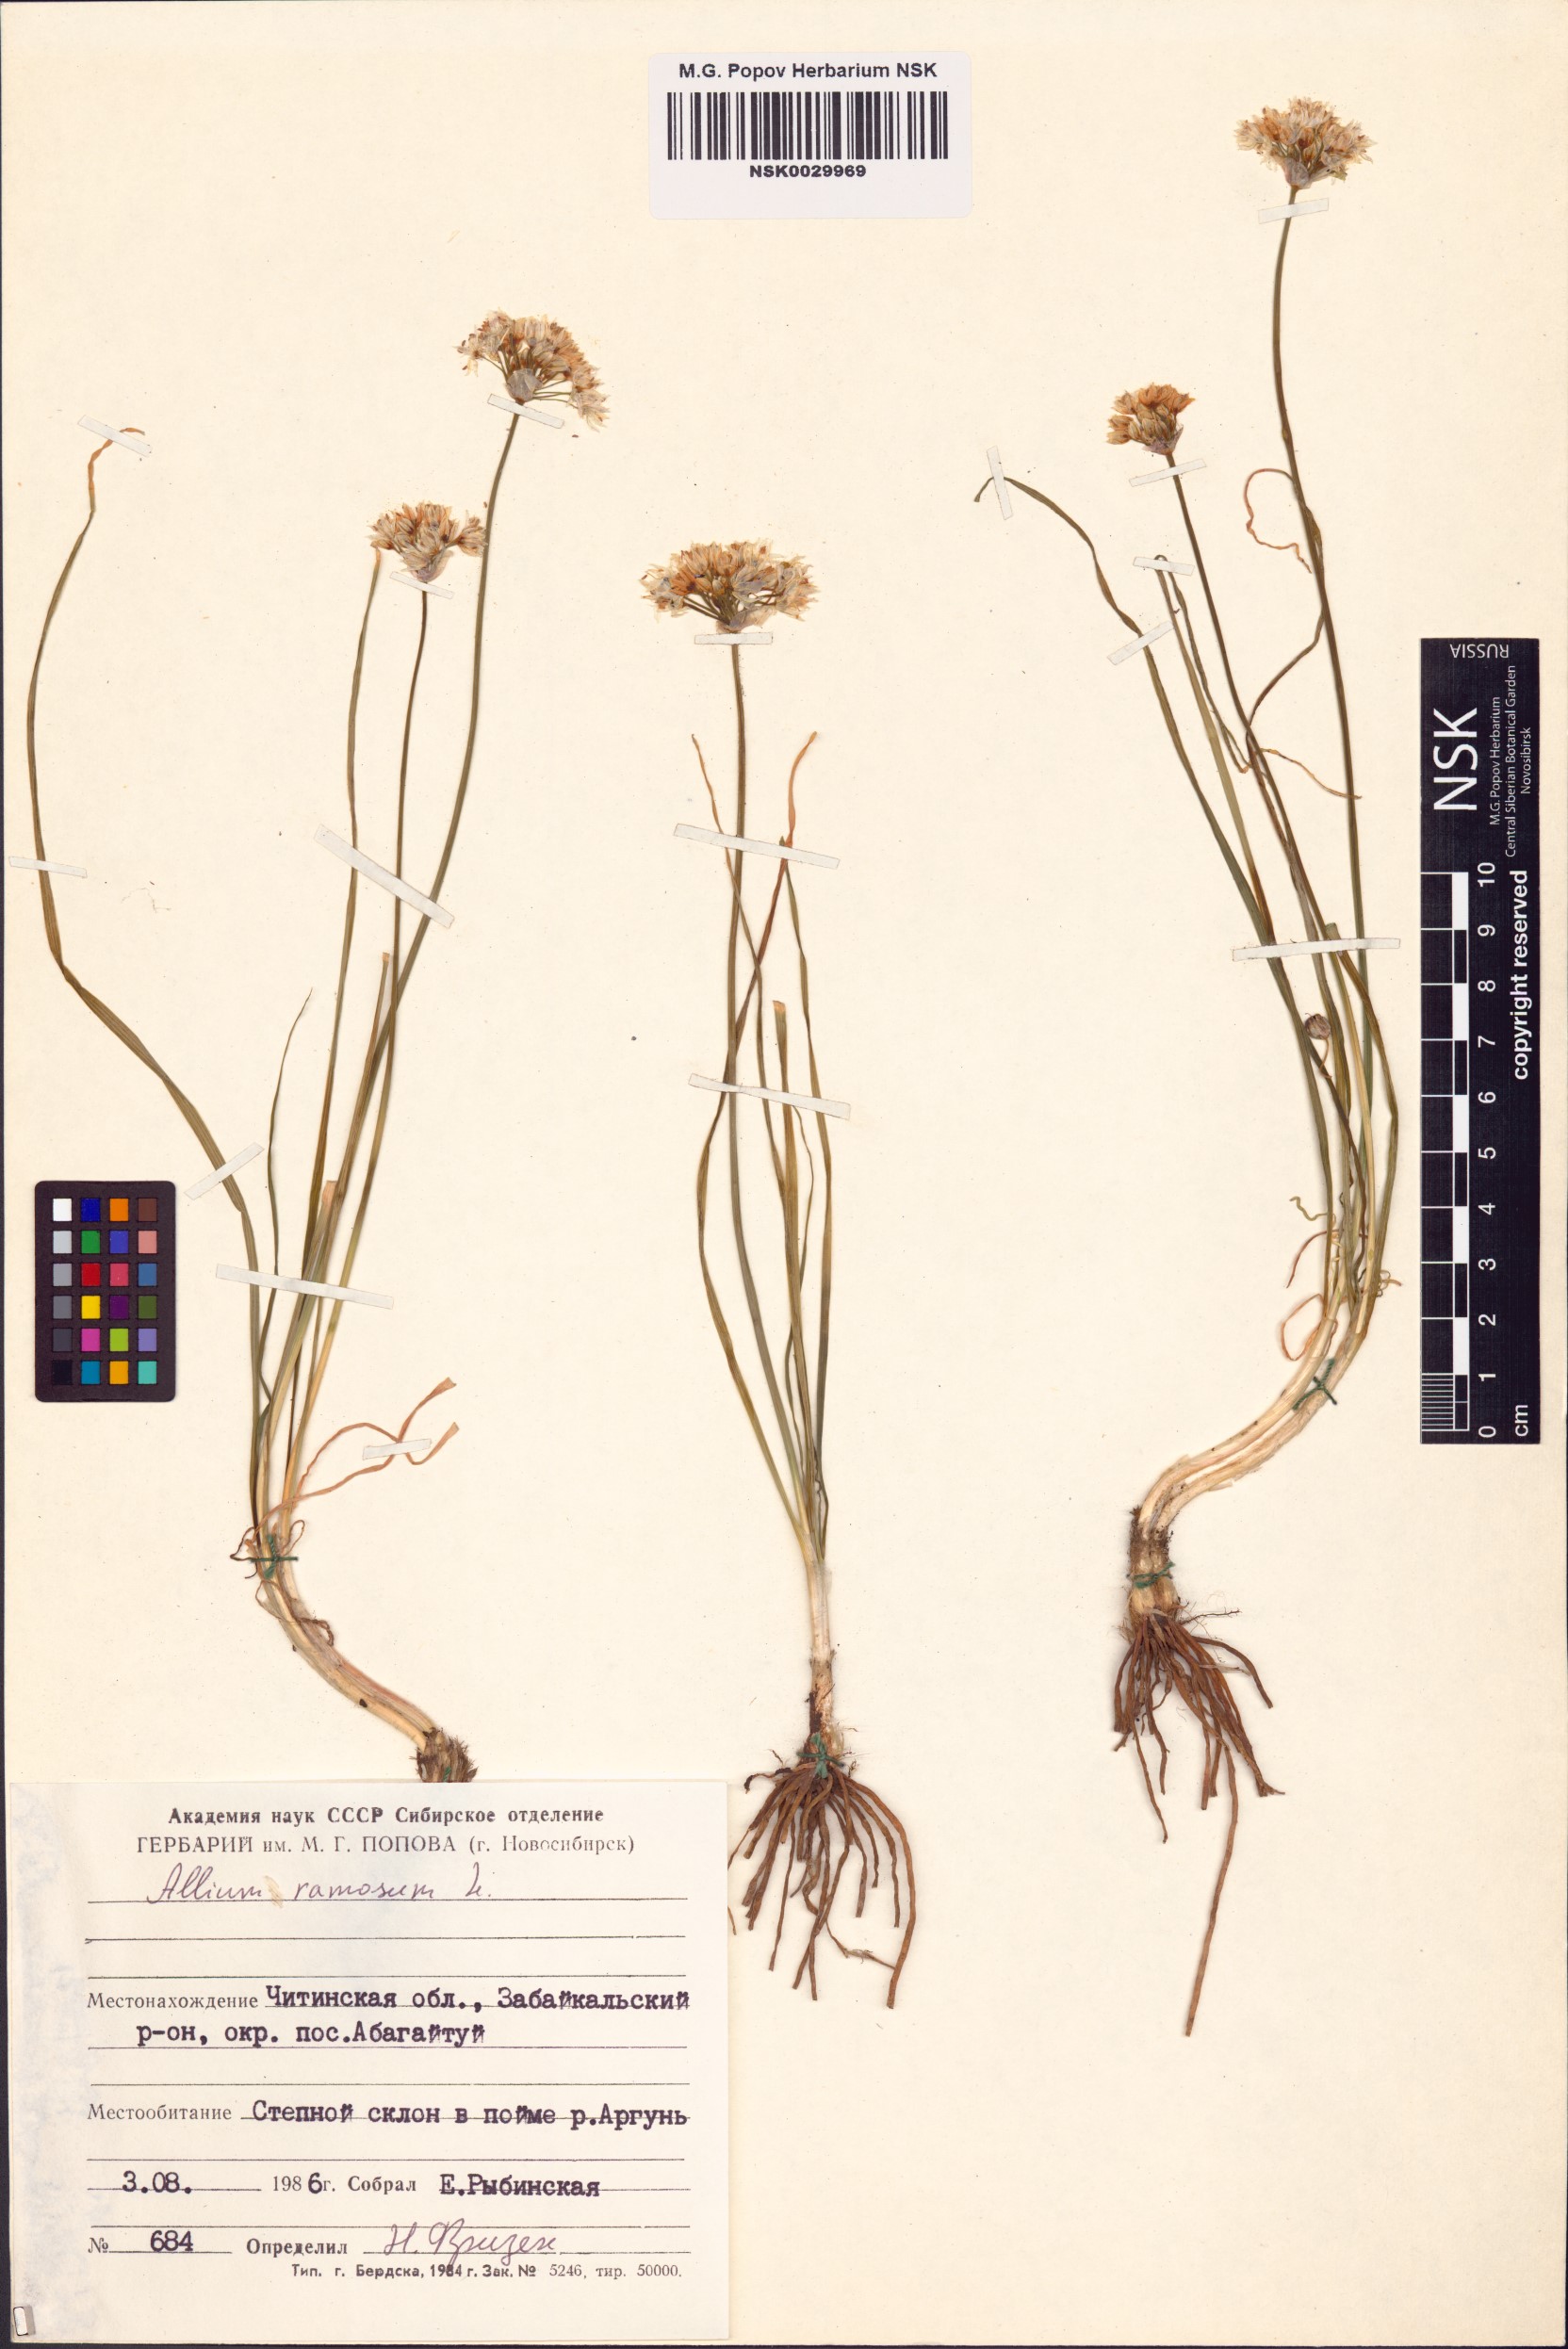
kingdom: Plantae
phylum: Tracheophyta
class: Liliopsida
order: Asparagales
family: Amaryllidaceae
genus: Allium
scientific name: Allium ramosum
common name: Fragrant garlic
